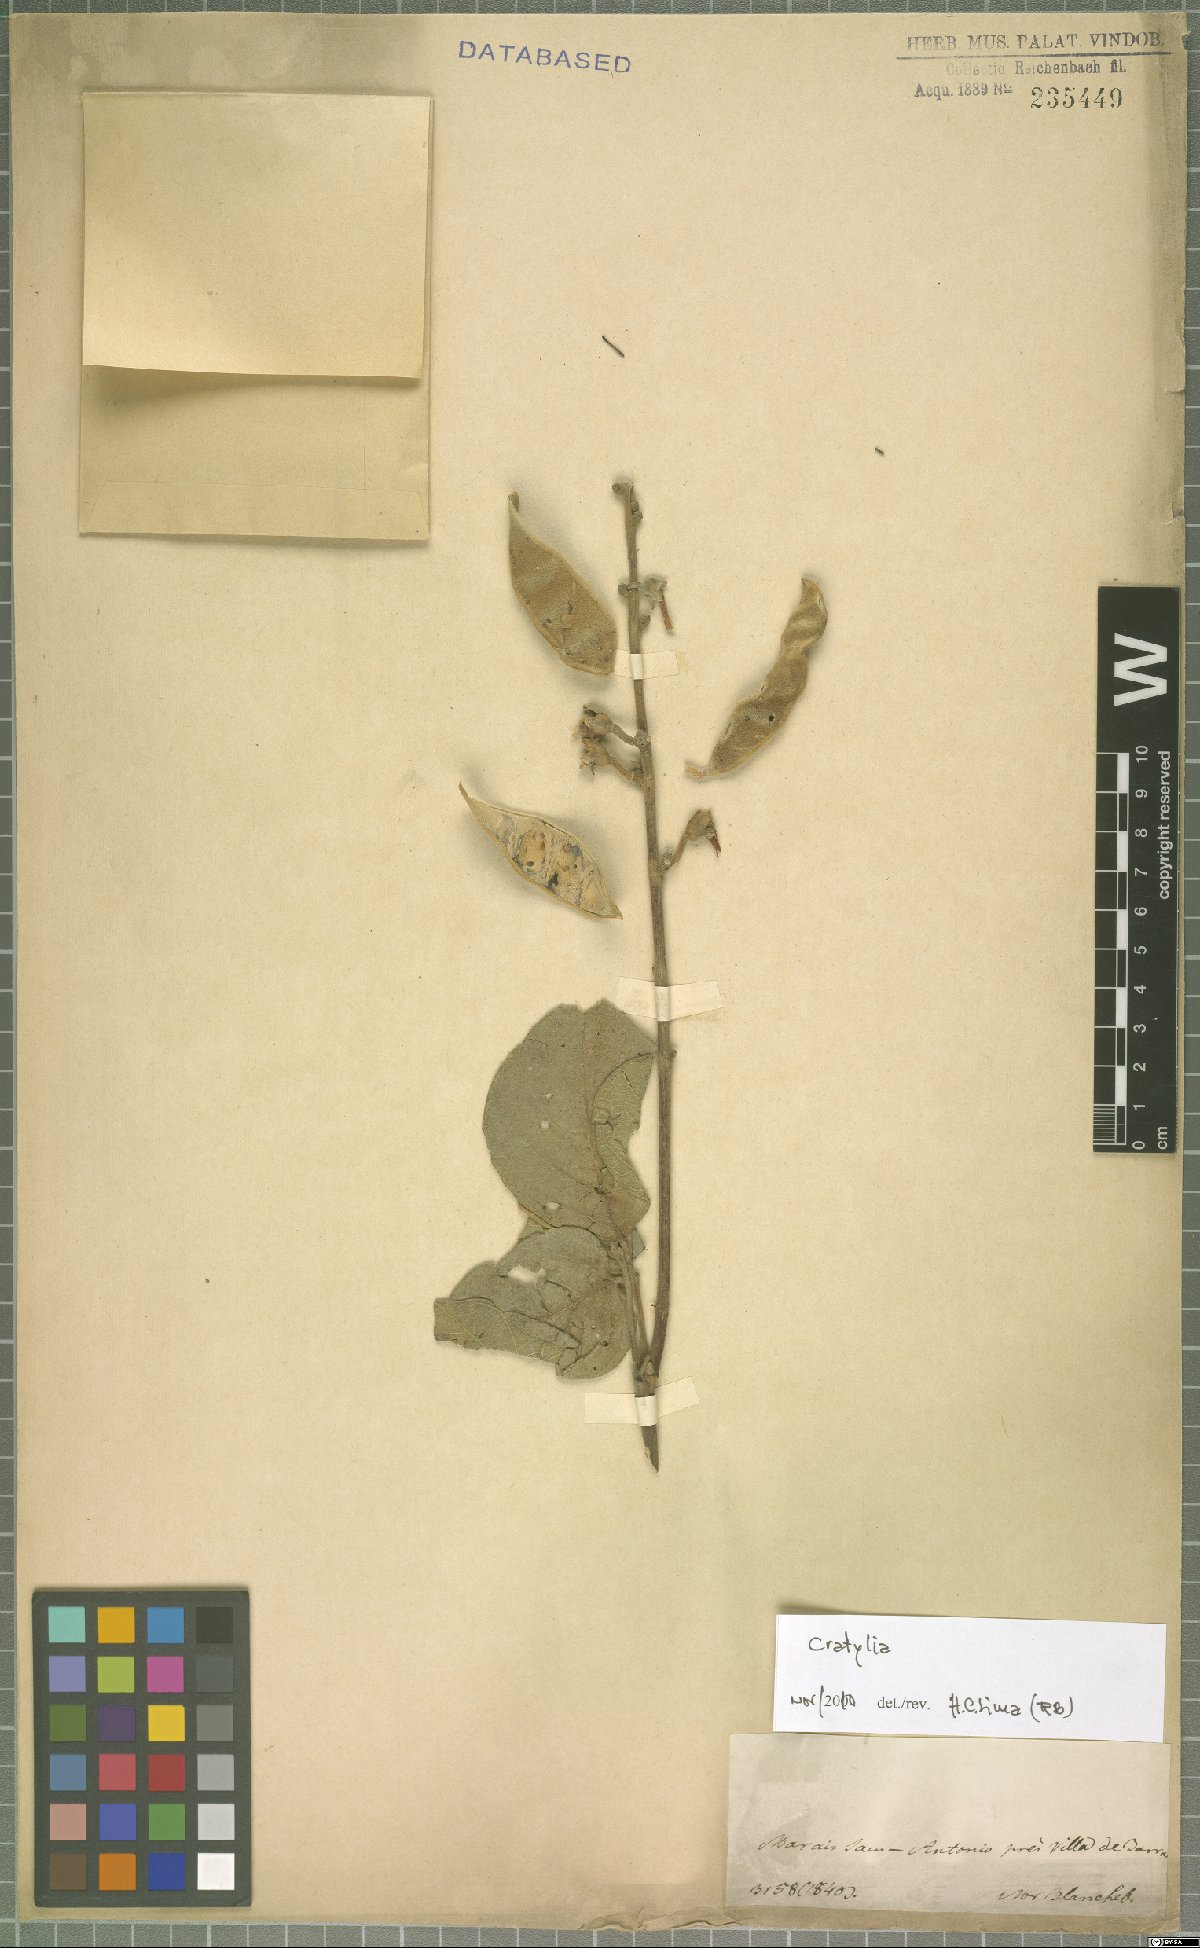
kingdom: Plantae
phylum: Tracheophyta
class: Magnoliopsida
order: Fabales
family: Fabaceae
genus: Cratylia
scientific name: Cratylia
